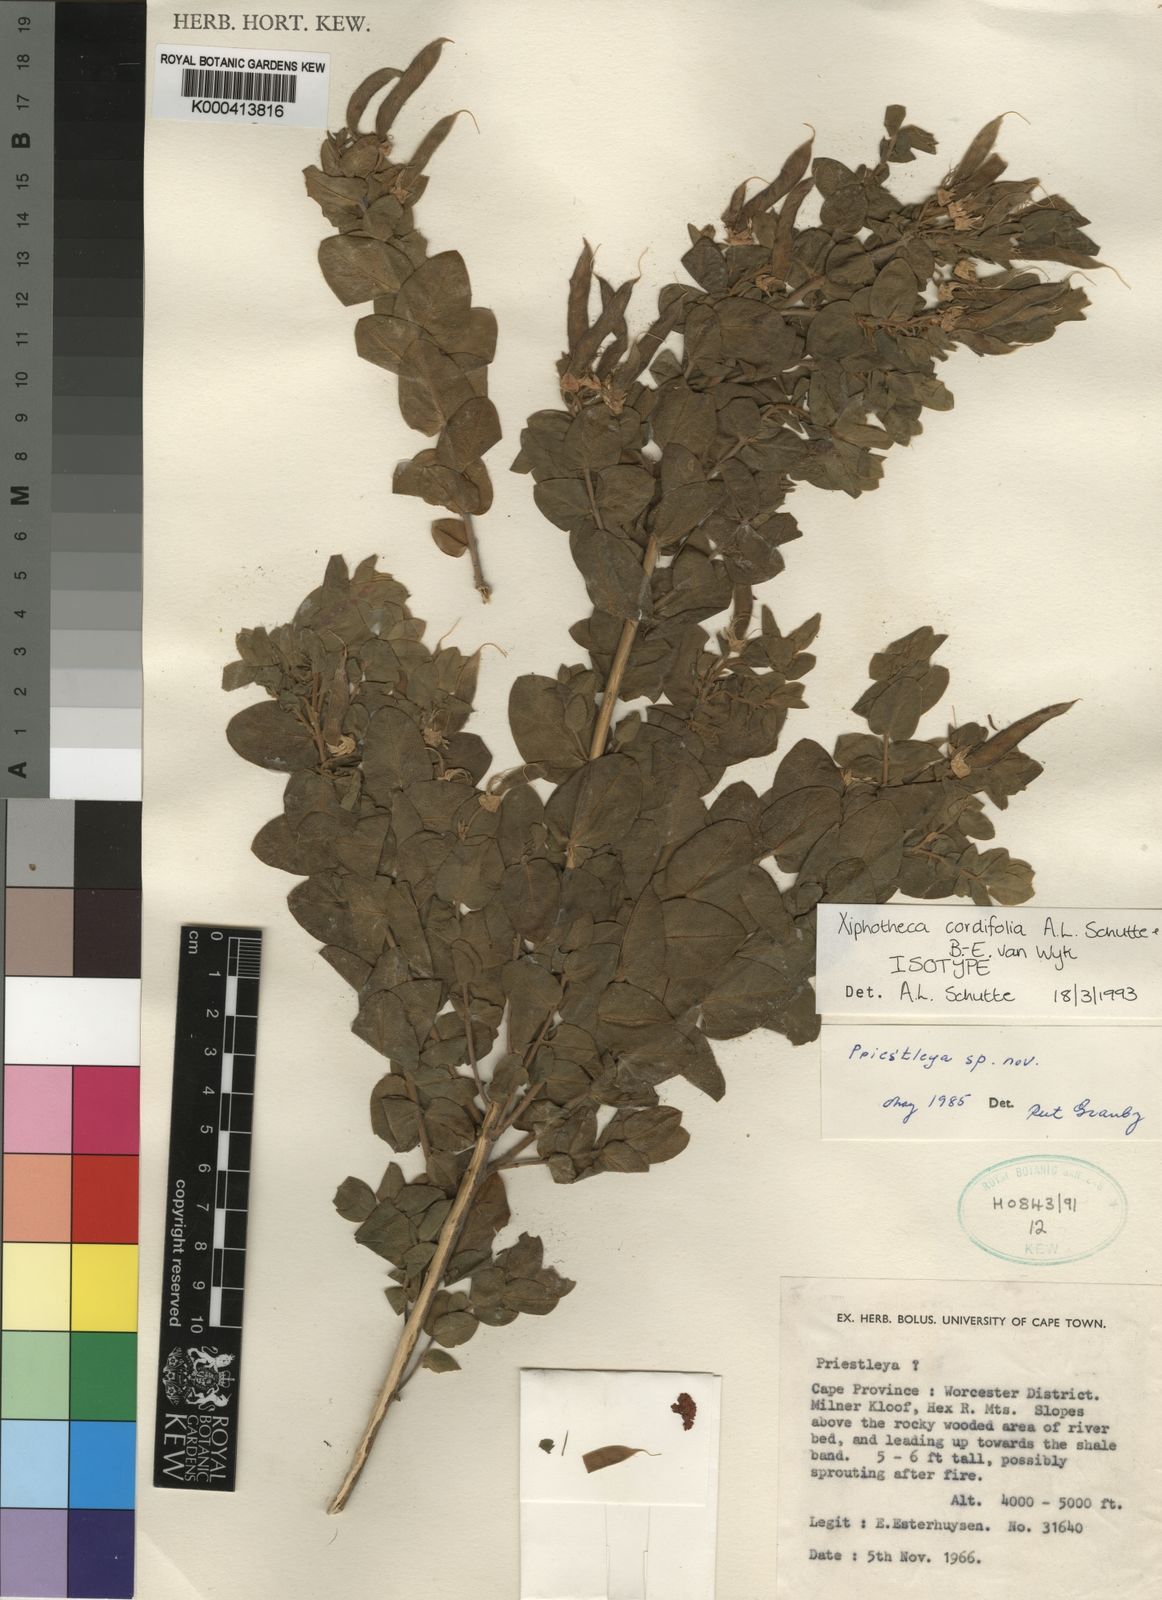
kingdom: Plantae
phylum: Tracheophyta
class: Magnoliopsida
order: Fabales
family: Fabaceae
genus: Xiphotheca
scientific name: Xiphotheca cordifolia
